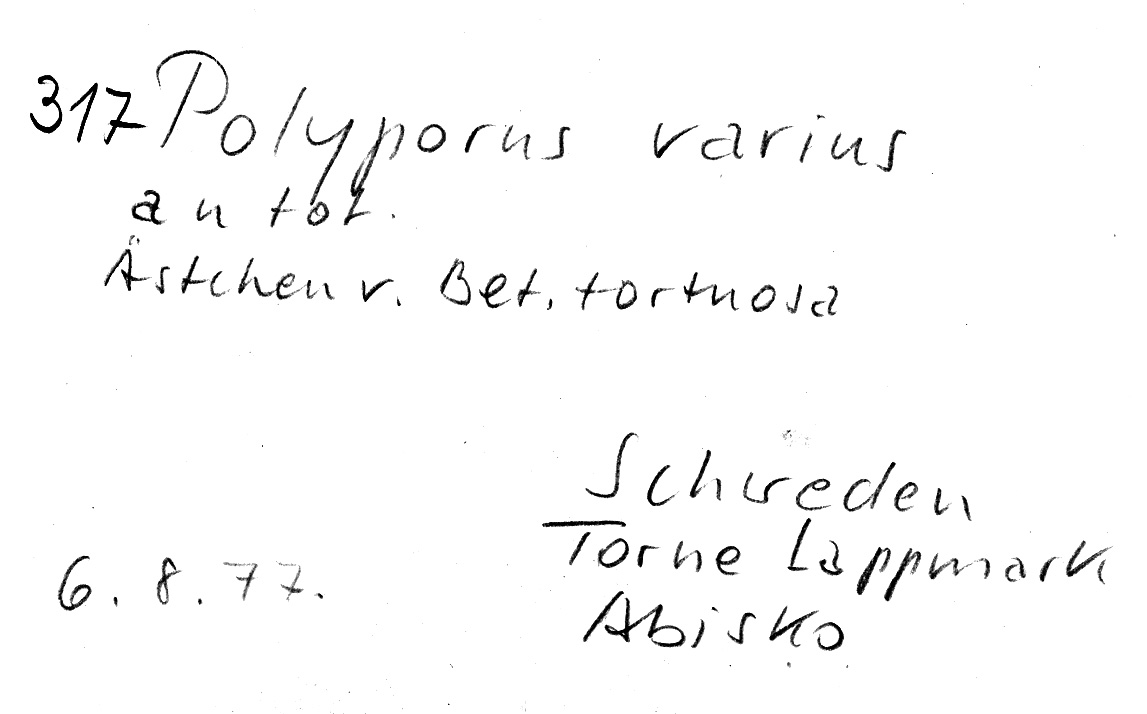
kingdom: Plantae
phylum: Tracheophyta
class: Magnoliopsida
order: Fagales
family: Betulaceae
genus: Betula
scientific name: Betula pubescens
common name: Downy birch
